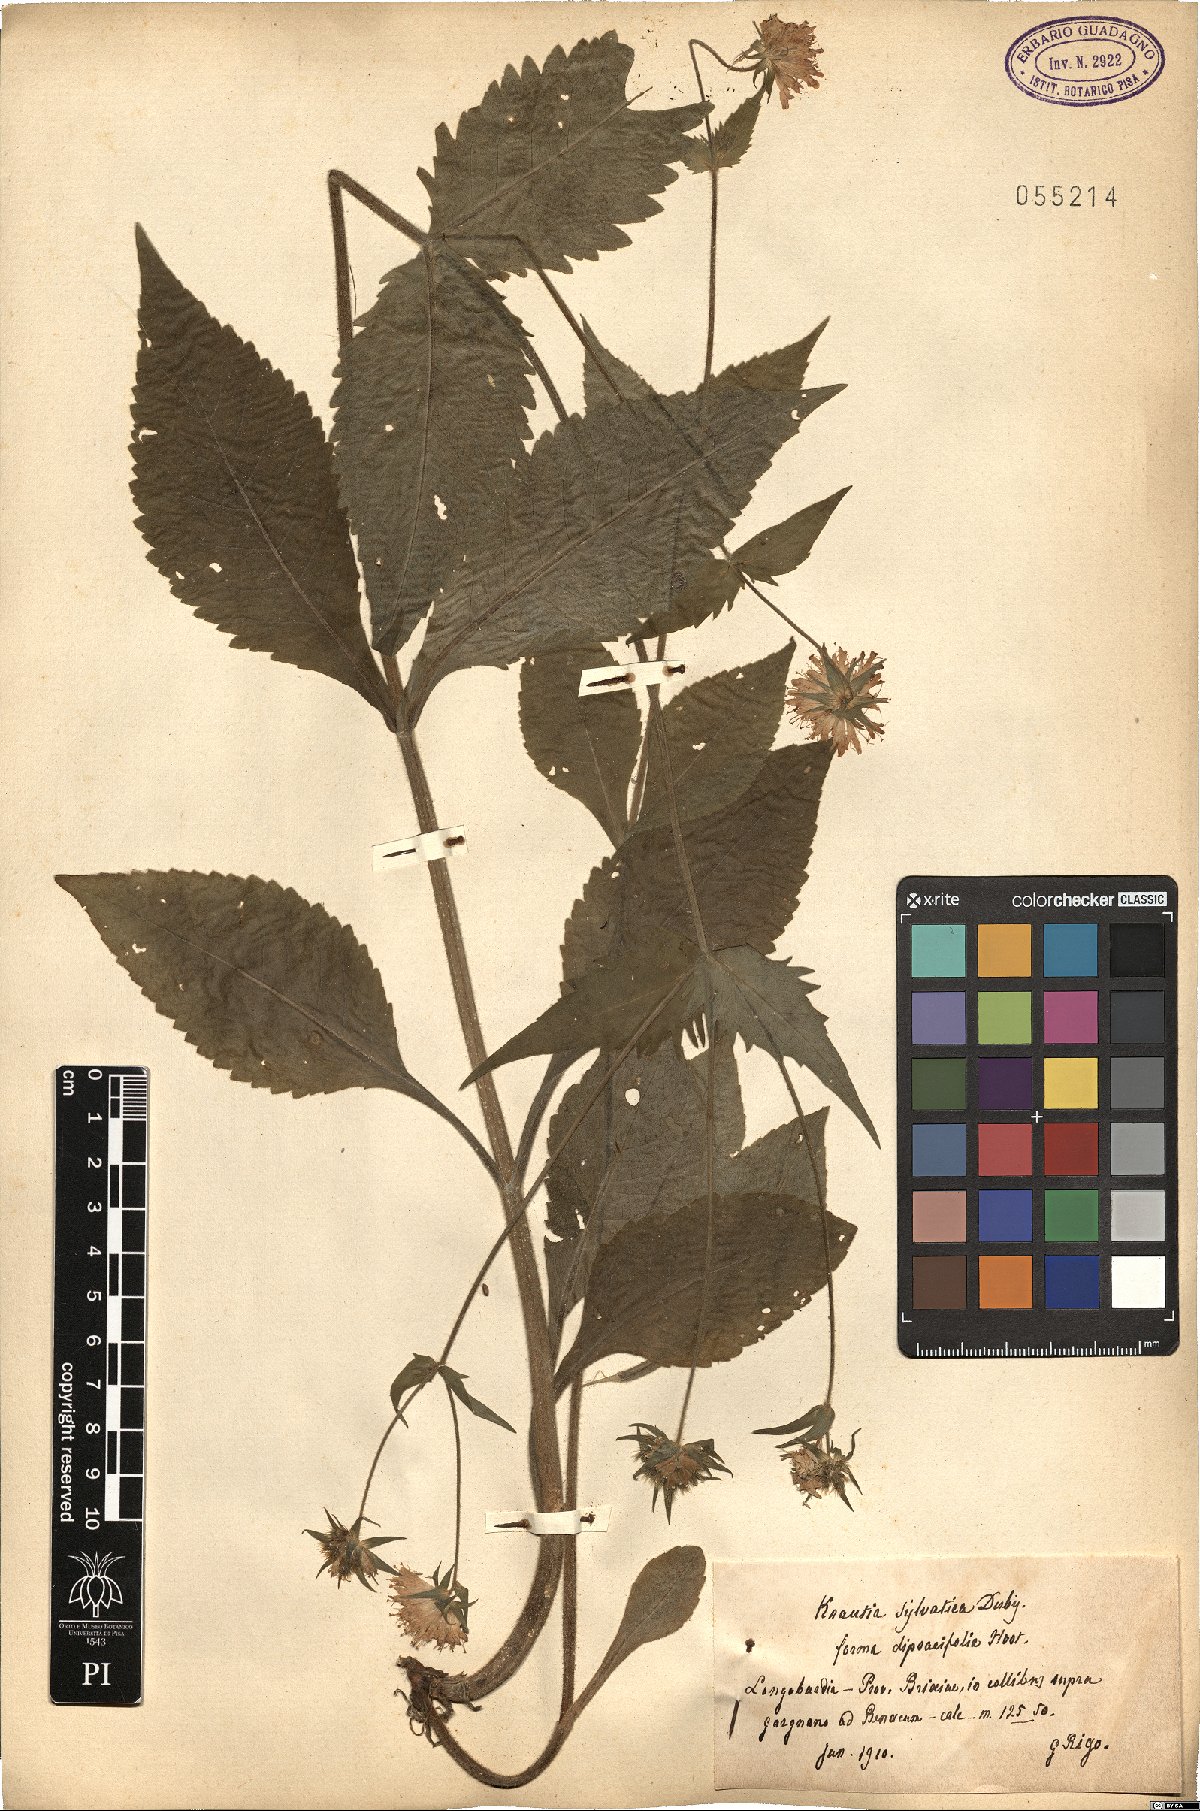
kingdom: Plantae
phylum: Tracheophyta
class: Magnoliopsida
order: Dipsacales
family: Caprifoliaceae
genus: Knautia
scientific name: Knautia dipsacifolia
